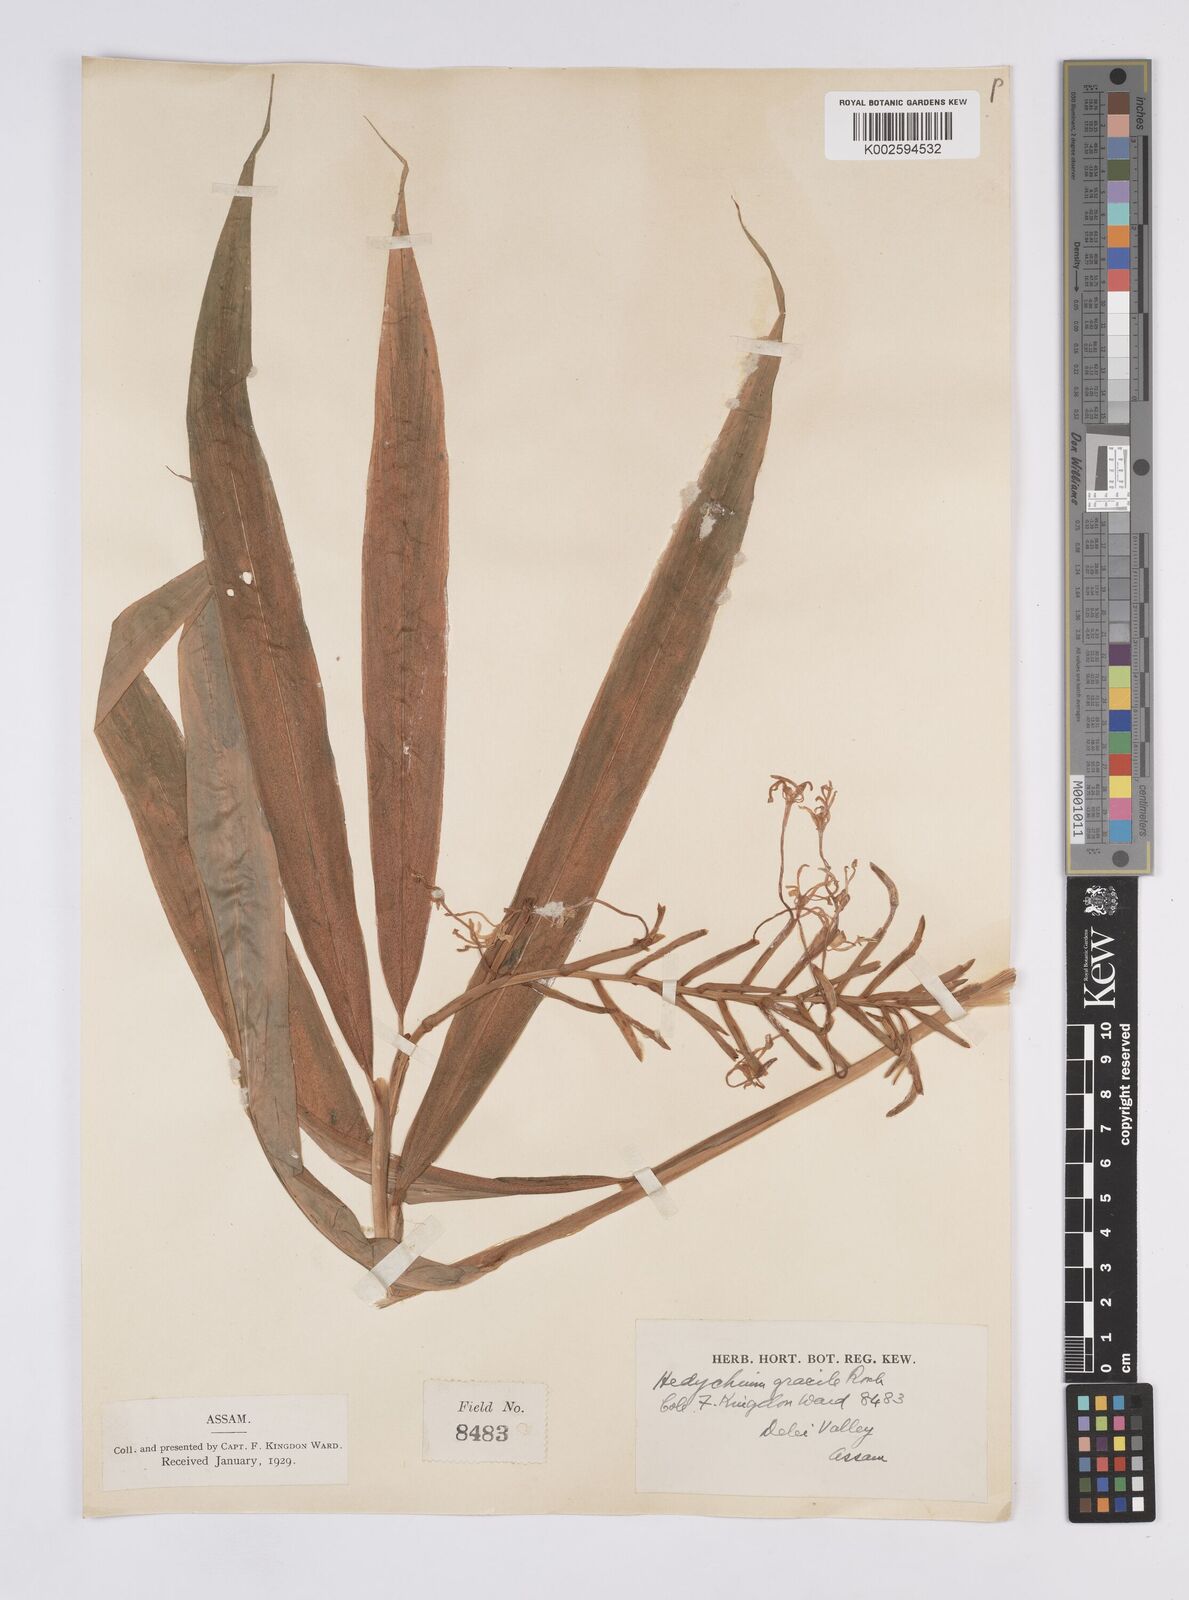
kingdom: Plantae
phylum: Tracheophyta
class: Liliopsida
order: Zingiberales
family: Zingiberaceae
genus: Hedychium
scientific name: Hedychium gracile
